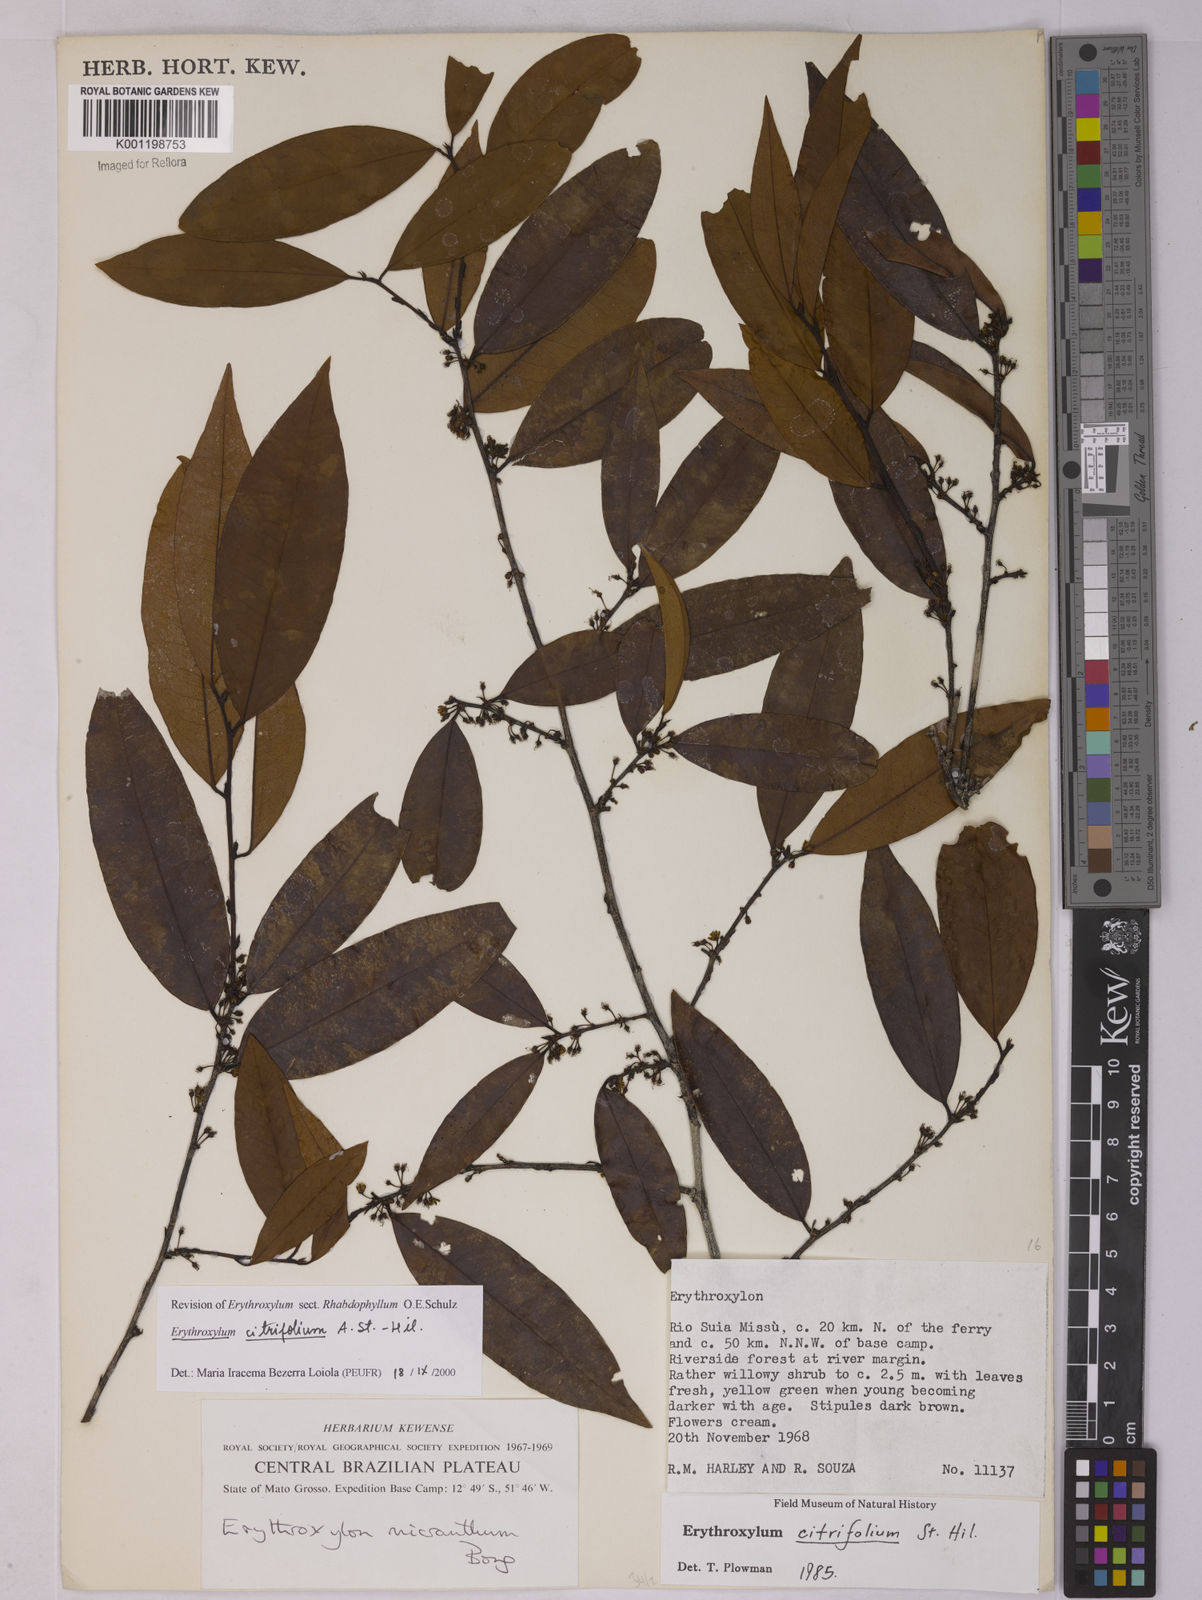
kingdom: Plantae
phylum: Tracheophyta
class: Magnoliopsida
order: Malpighiales
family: Erythroxylaceae
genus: Erythroxylum
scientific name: Erythroxylum citrifolium
